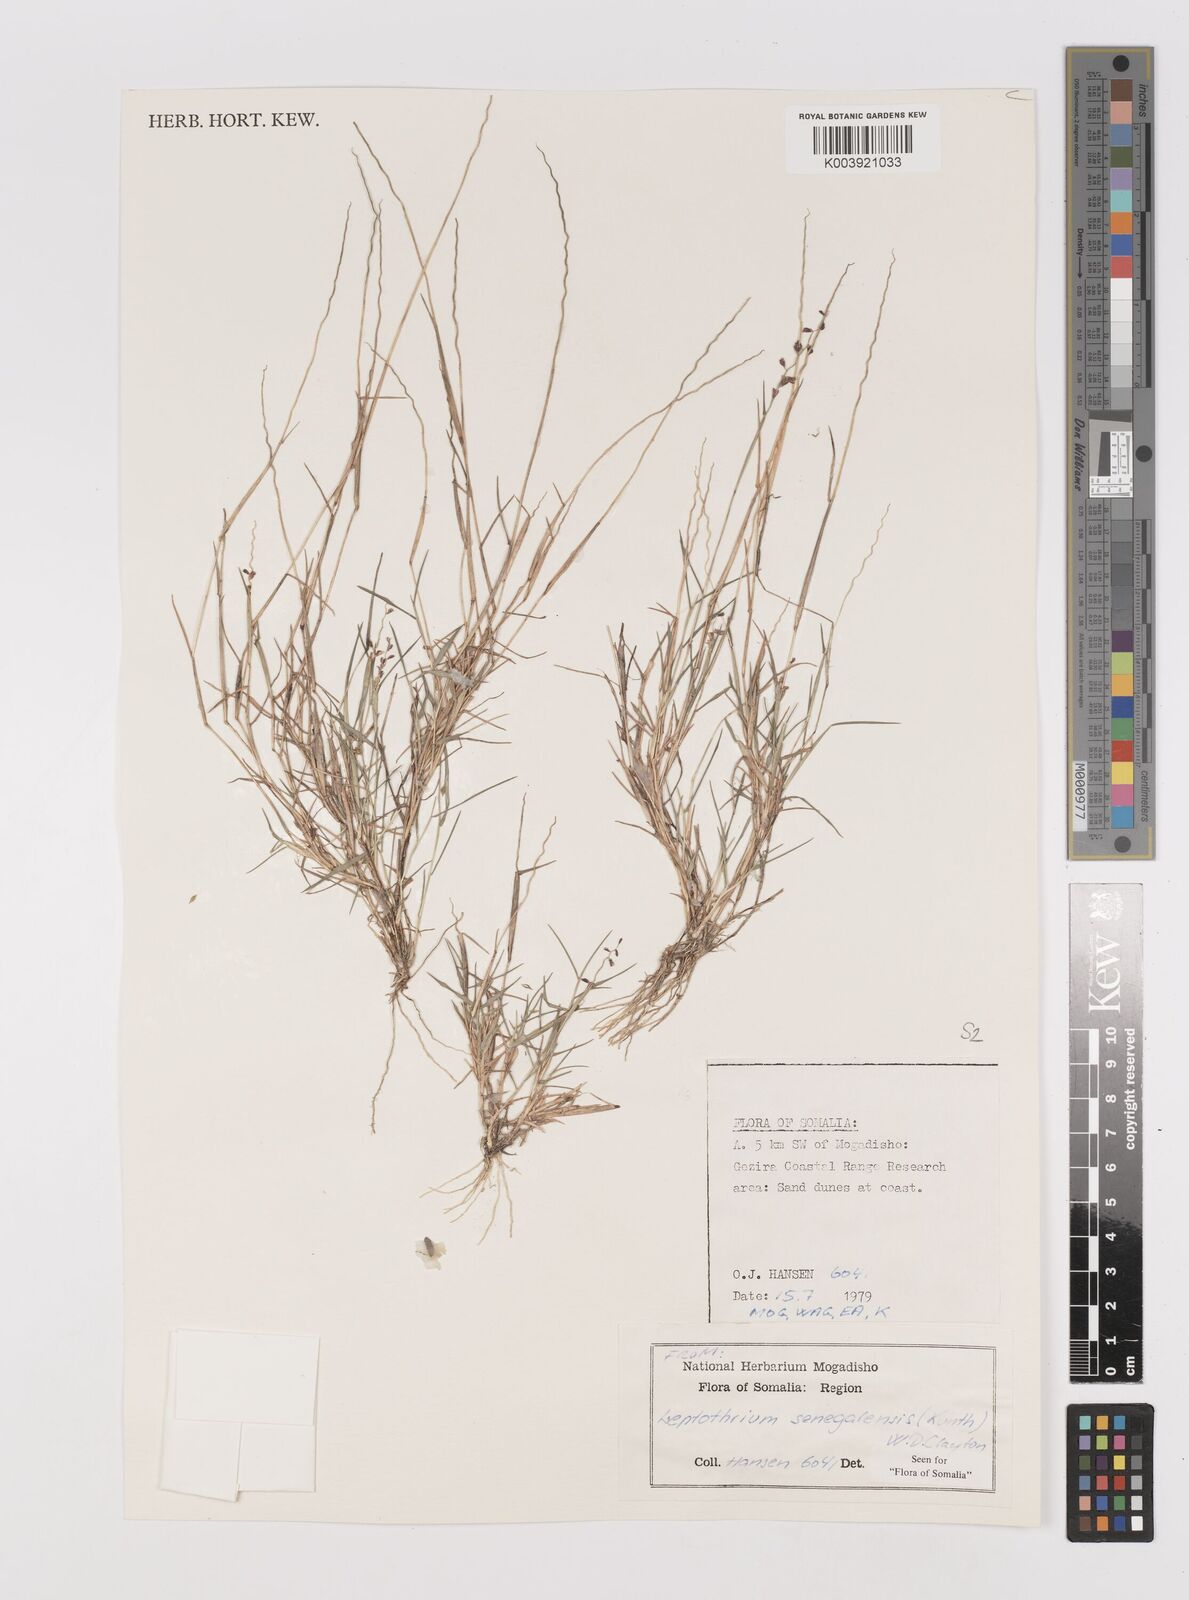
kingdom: Plantae
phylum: Tracheophyta
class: Liliopsida
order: Poales
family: Poaceae
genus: Leptothrium
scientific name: Leptothrium senegalense
